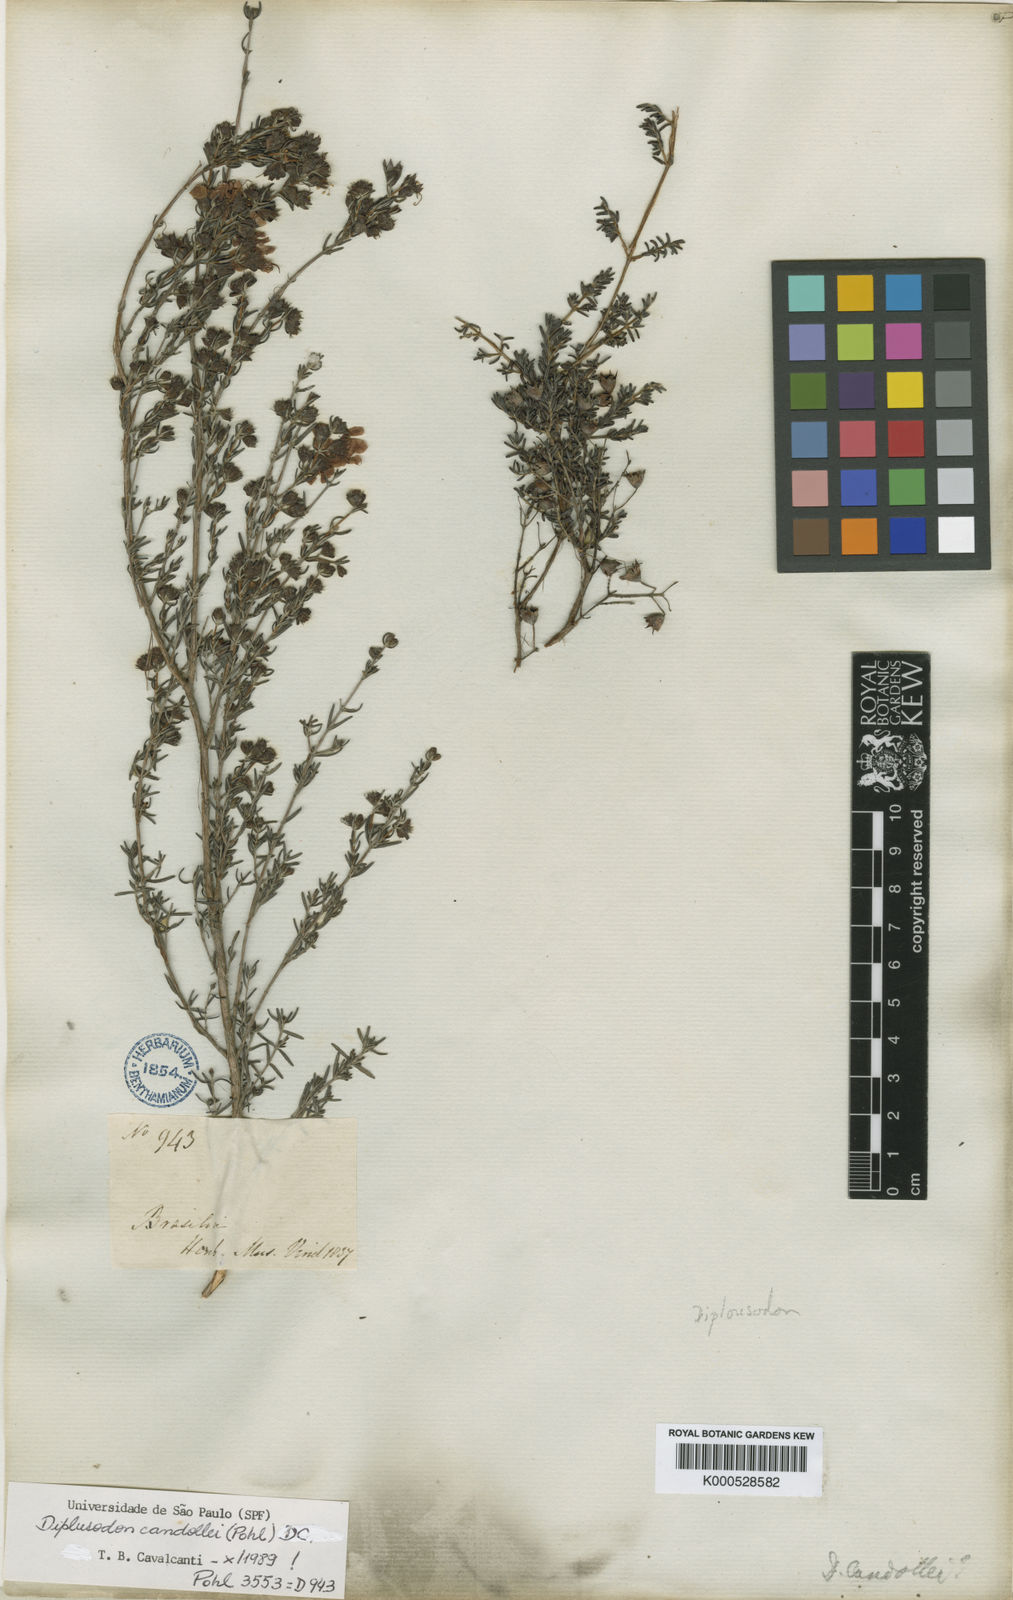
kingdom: Plantae
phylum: Tracheophyta
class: Magnoliopsida
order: Myrtales
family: Lythraceae
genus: Diplusodon
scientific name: Diplusodon
